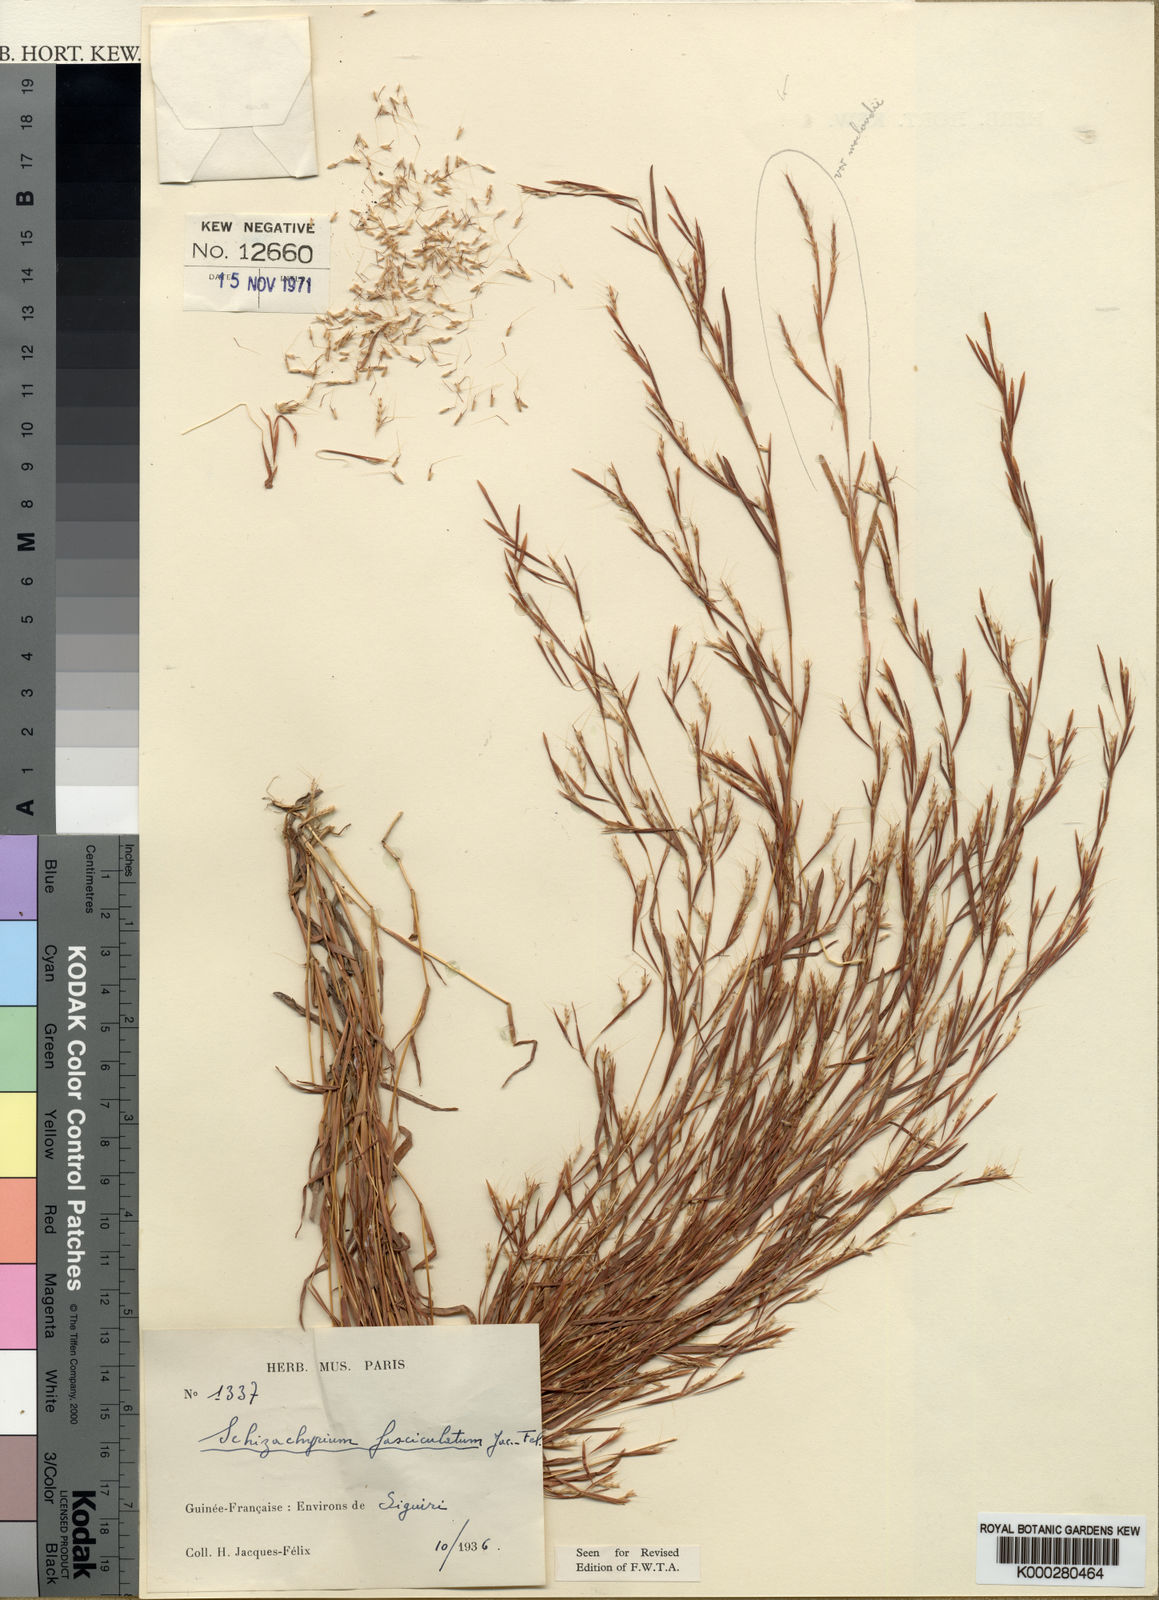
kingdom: Plantae
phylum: Tracheophyta
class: Liliopsida
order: Poales
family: Poaceae
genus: Schizachyrium
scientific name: Schizachyrium brevifolium
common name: Serillo dulce
